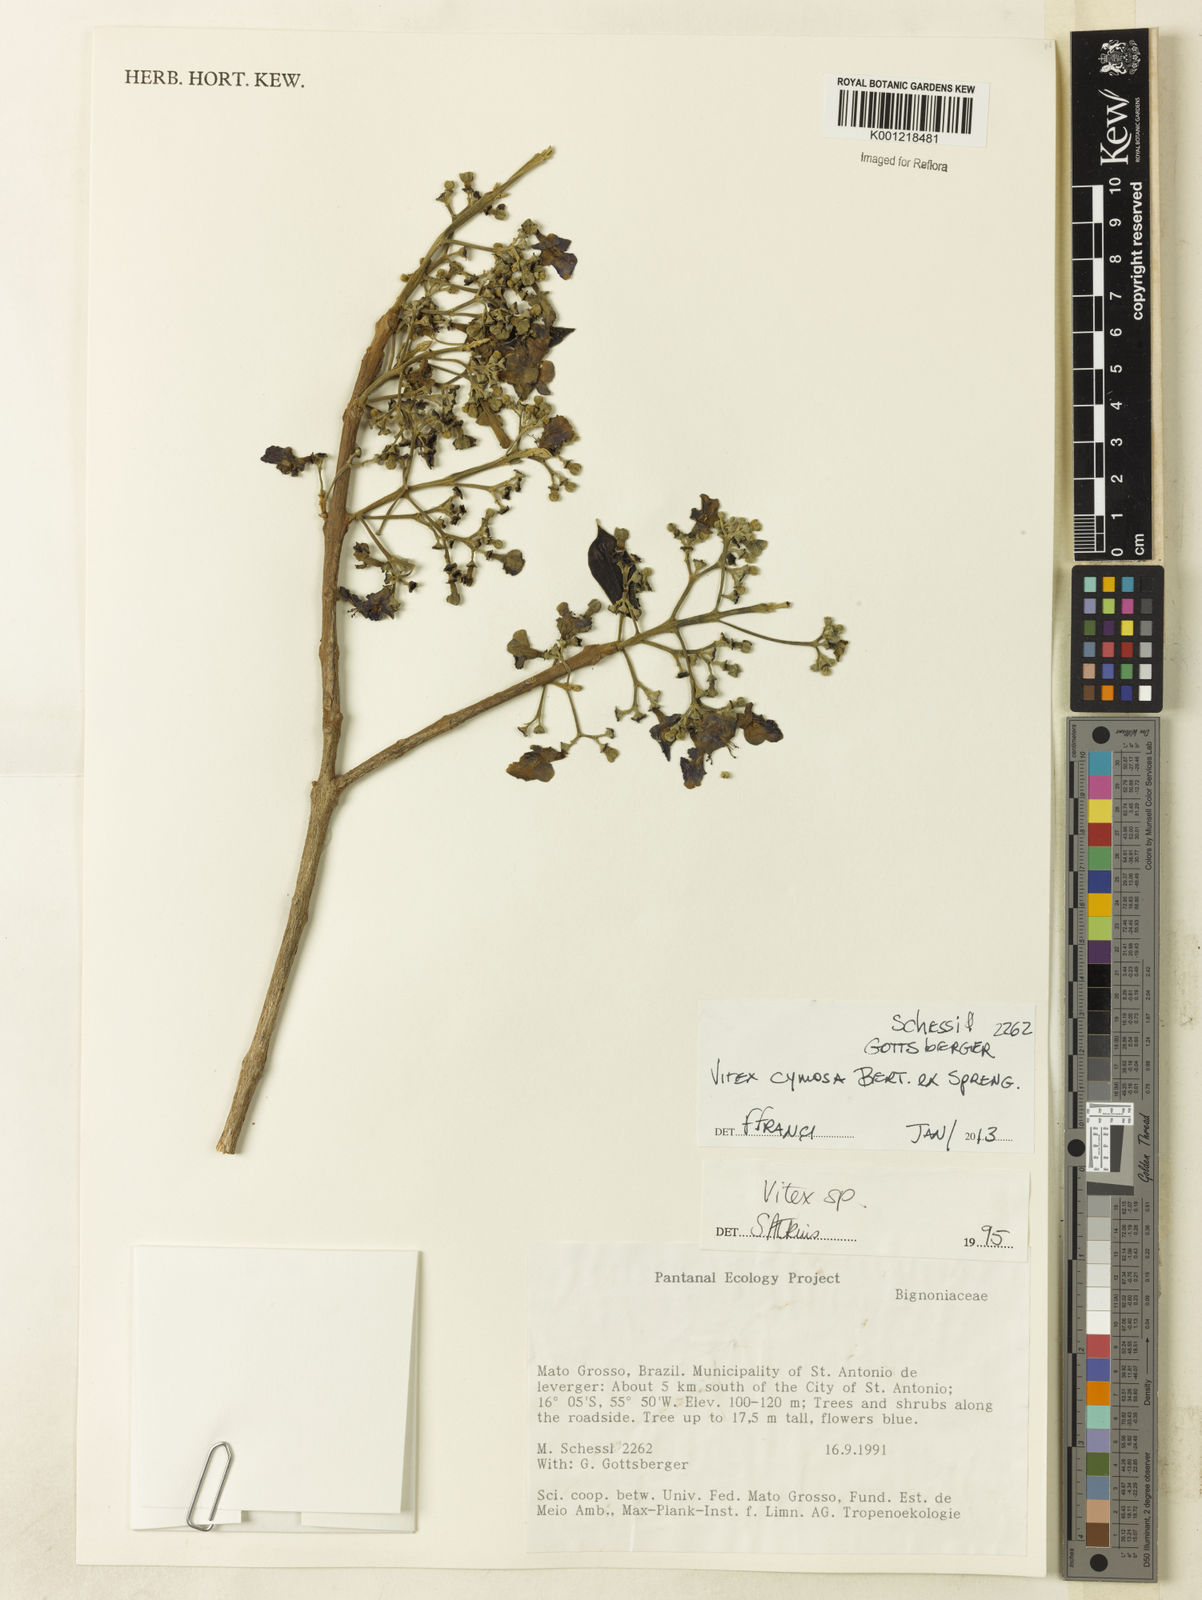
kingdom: Plantae
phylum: Tracheophyta
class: Magnoliopsida
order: Lamiales
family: Lamiaceae
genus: Vitex
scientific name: Vitex cymosa
